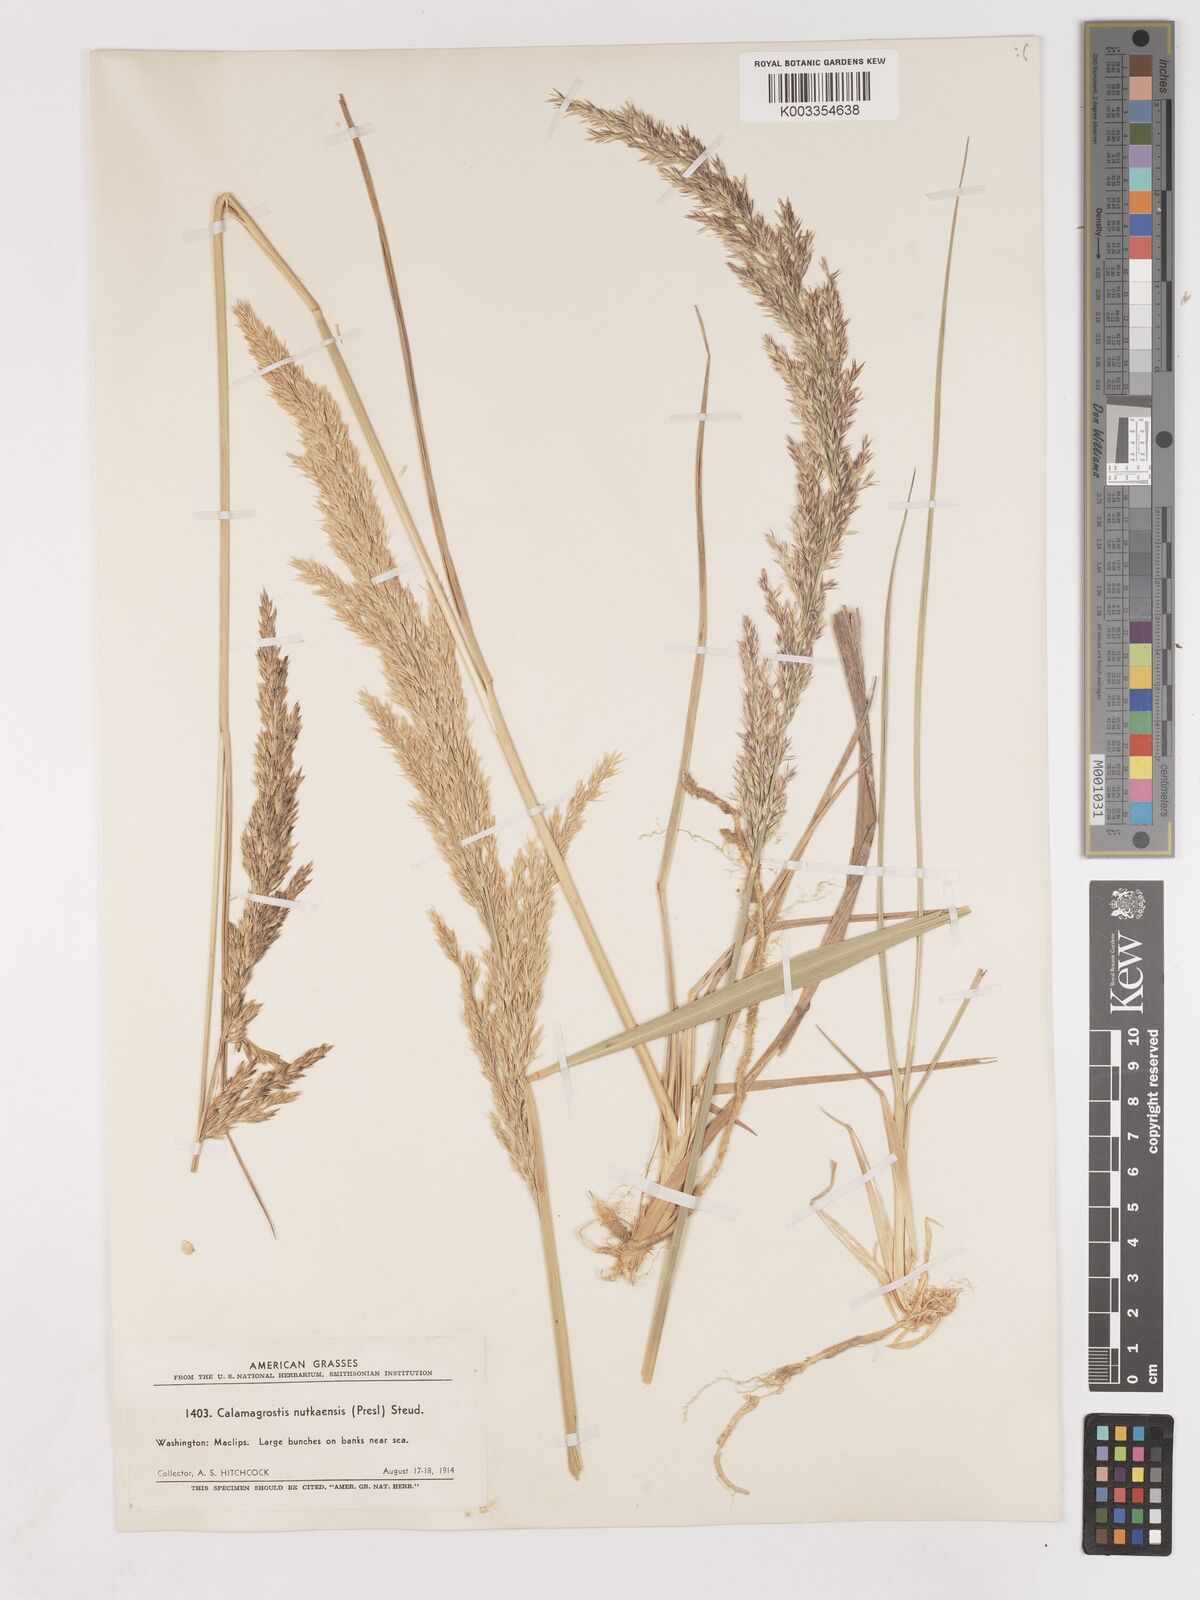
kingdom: Plantae
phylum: Tracheophyta
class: Liliopsida
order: Poales
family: Poaceae
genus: Calamagrostis
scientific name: Calamagrostis nutkaensis
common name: Pacific reed grass
